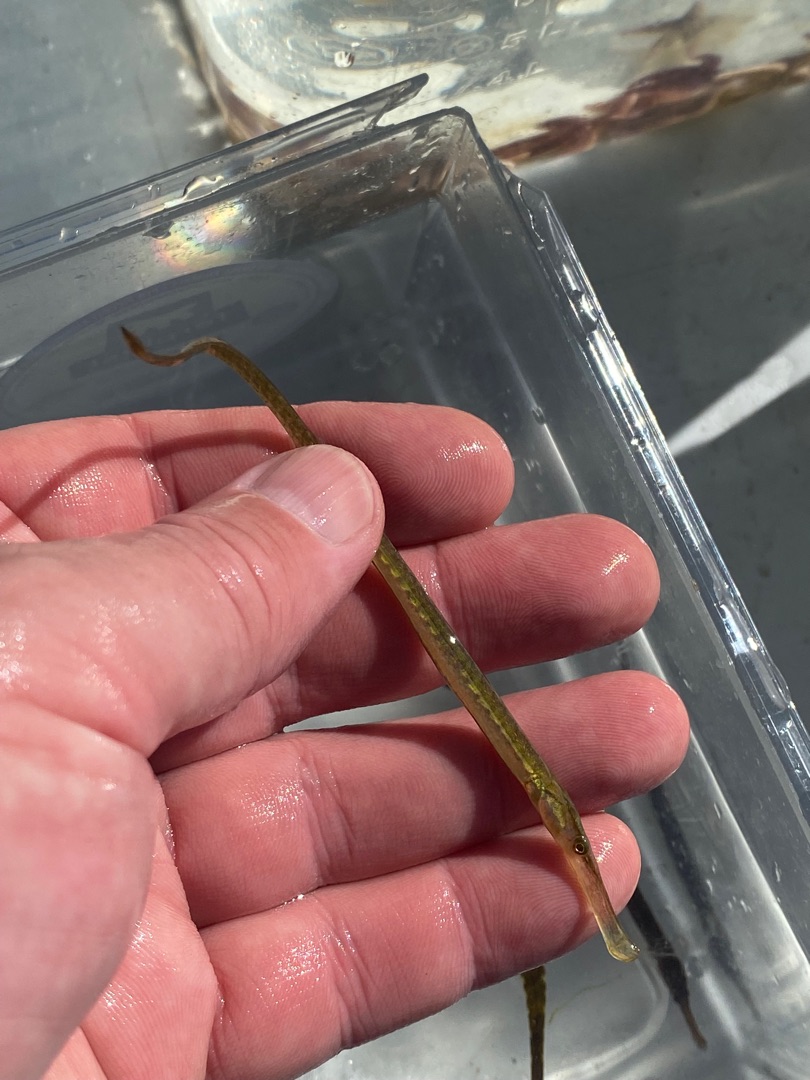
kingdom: Animalia
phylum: Chordata
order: Syngnathiformes
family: Syngnathidae
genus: Syngnathus
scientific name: Syngnathus typhle
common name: Almindelig tangnål
